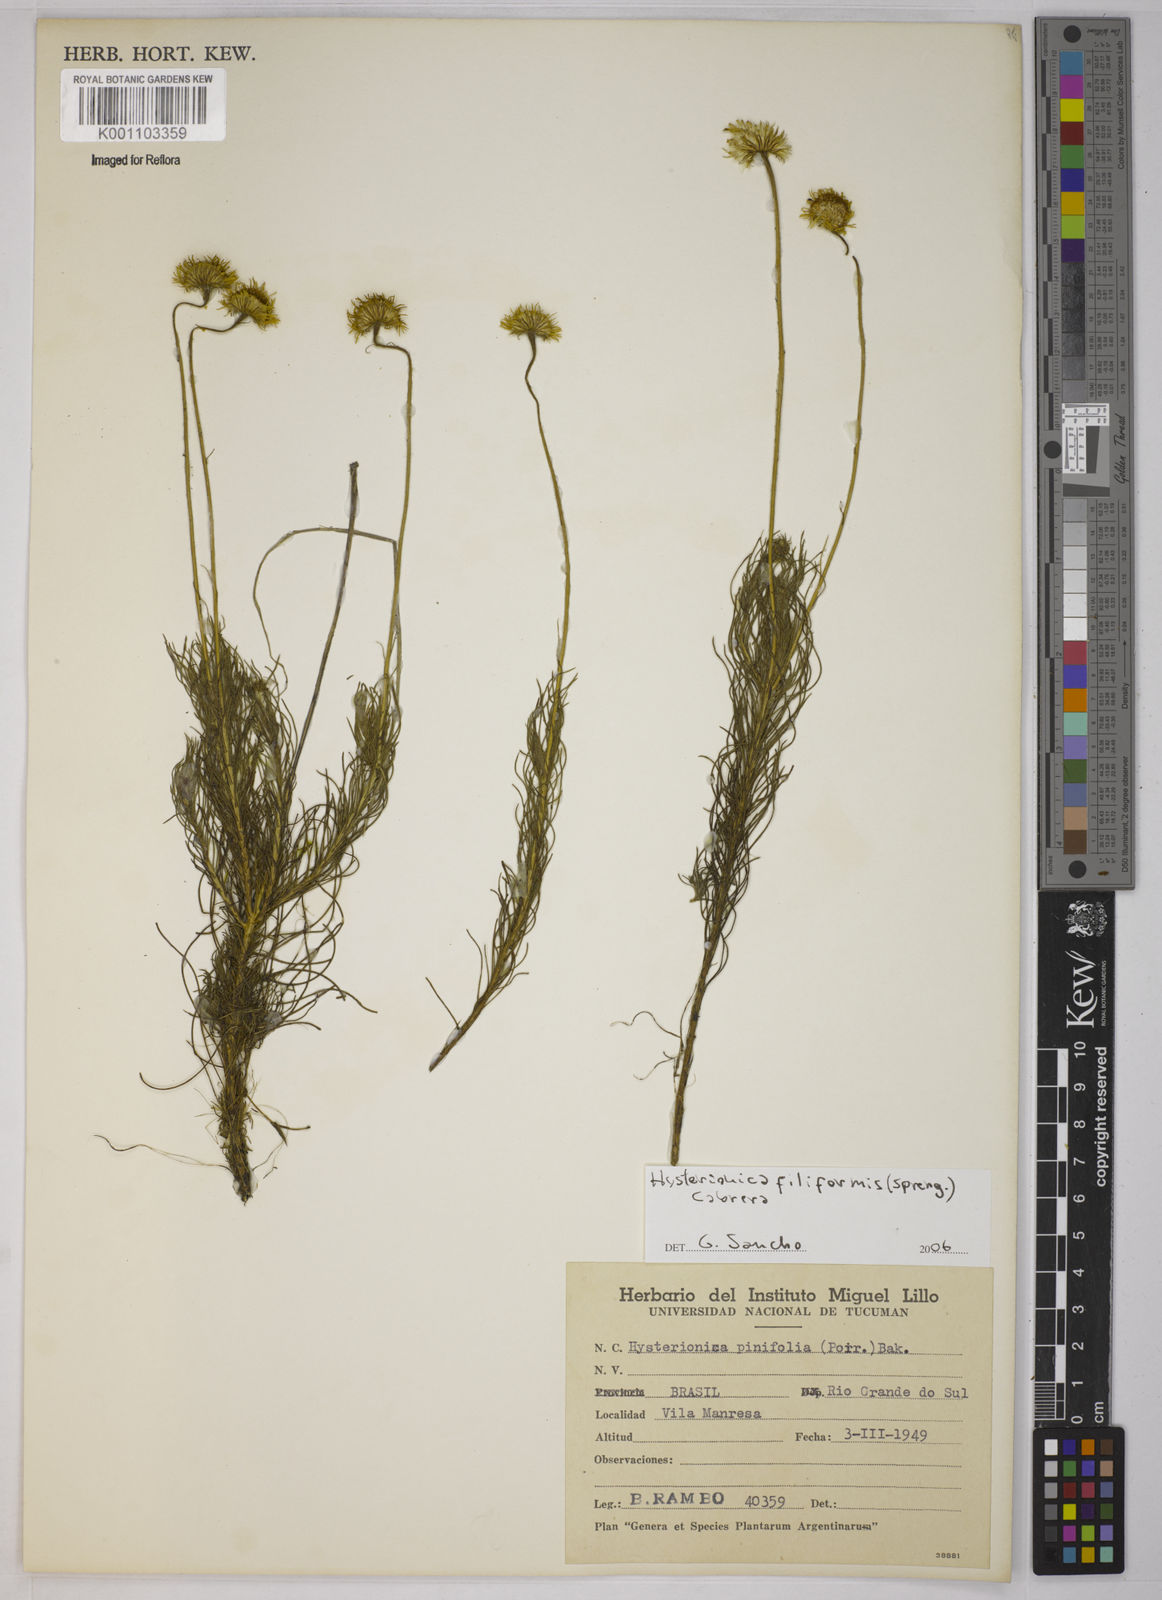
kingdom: Plantae
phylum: Tracheophyta
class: Magnoliopsida
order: Asterales
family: Asteraceae
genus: Neja
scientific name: Neja filiformis
